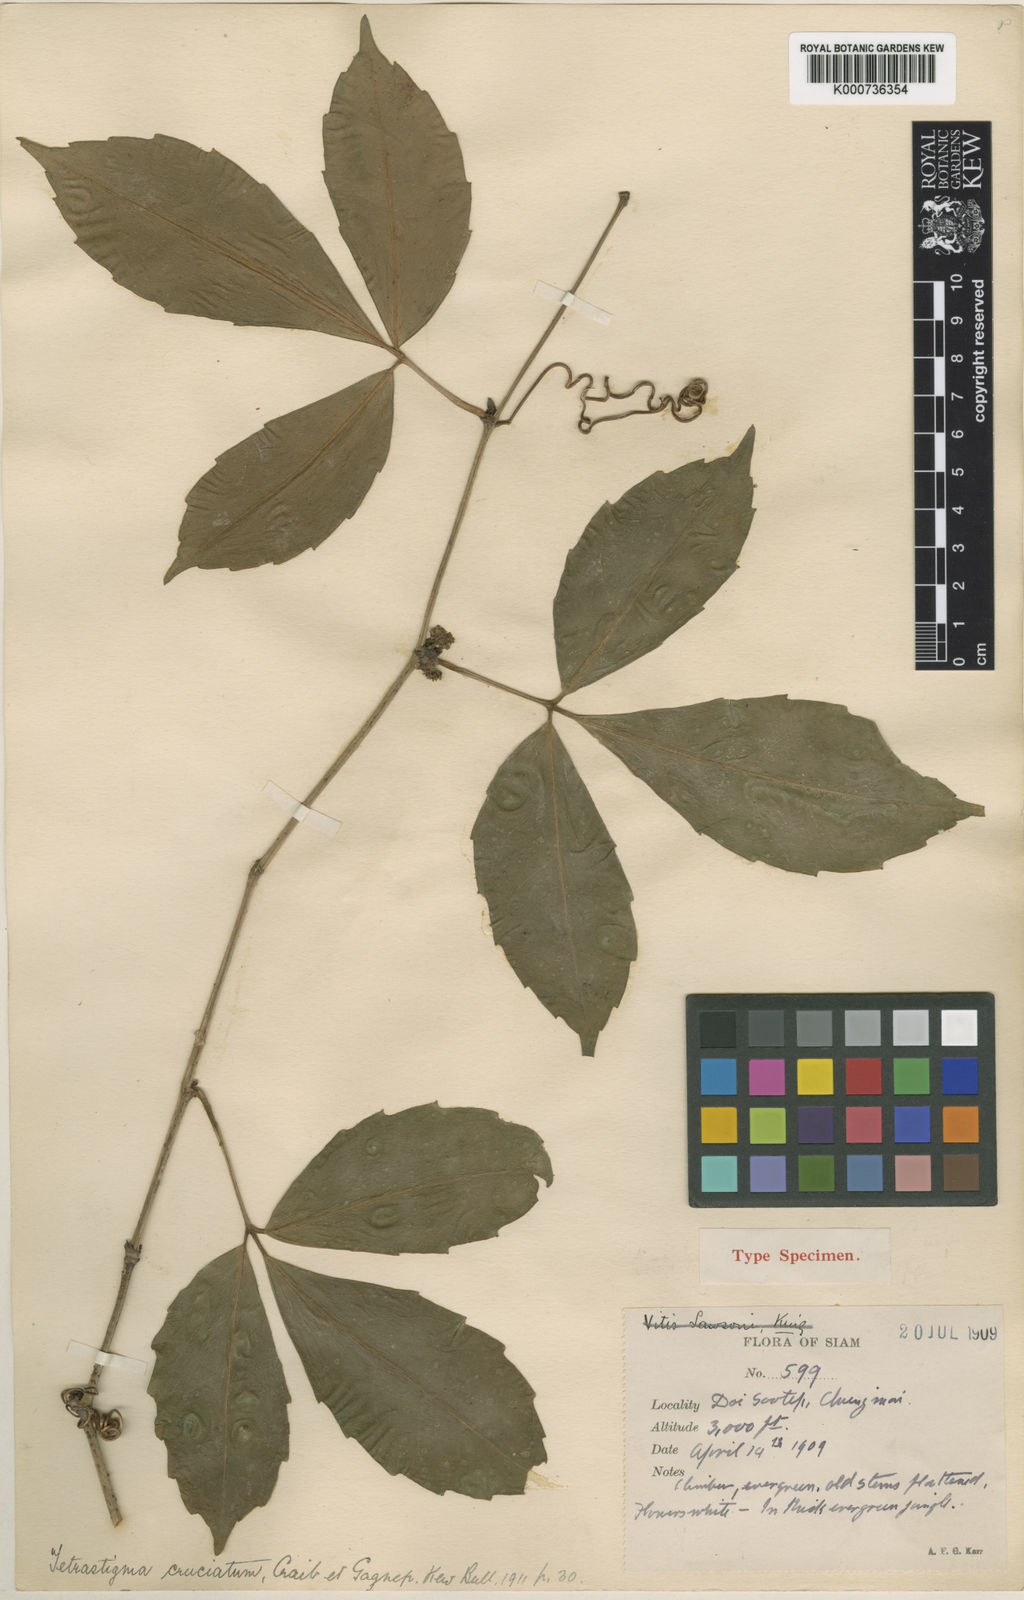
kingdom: Plantae
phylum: Tracheophyta
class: Magnoliopsida
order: Vitales
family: Vitaceae
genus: Tetrastigma
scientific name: Tetrastigma cruciatum
